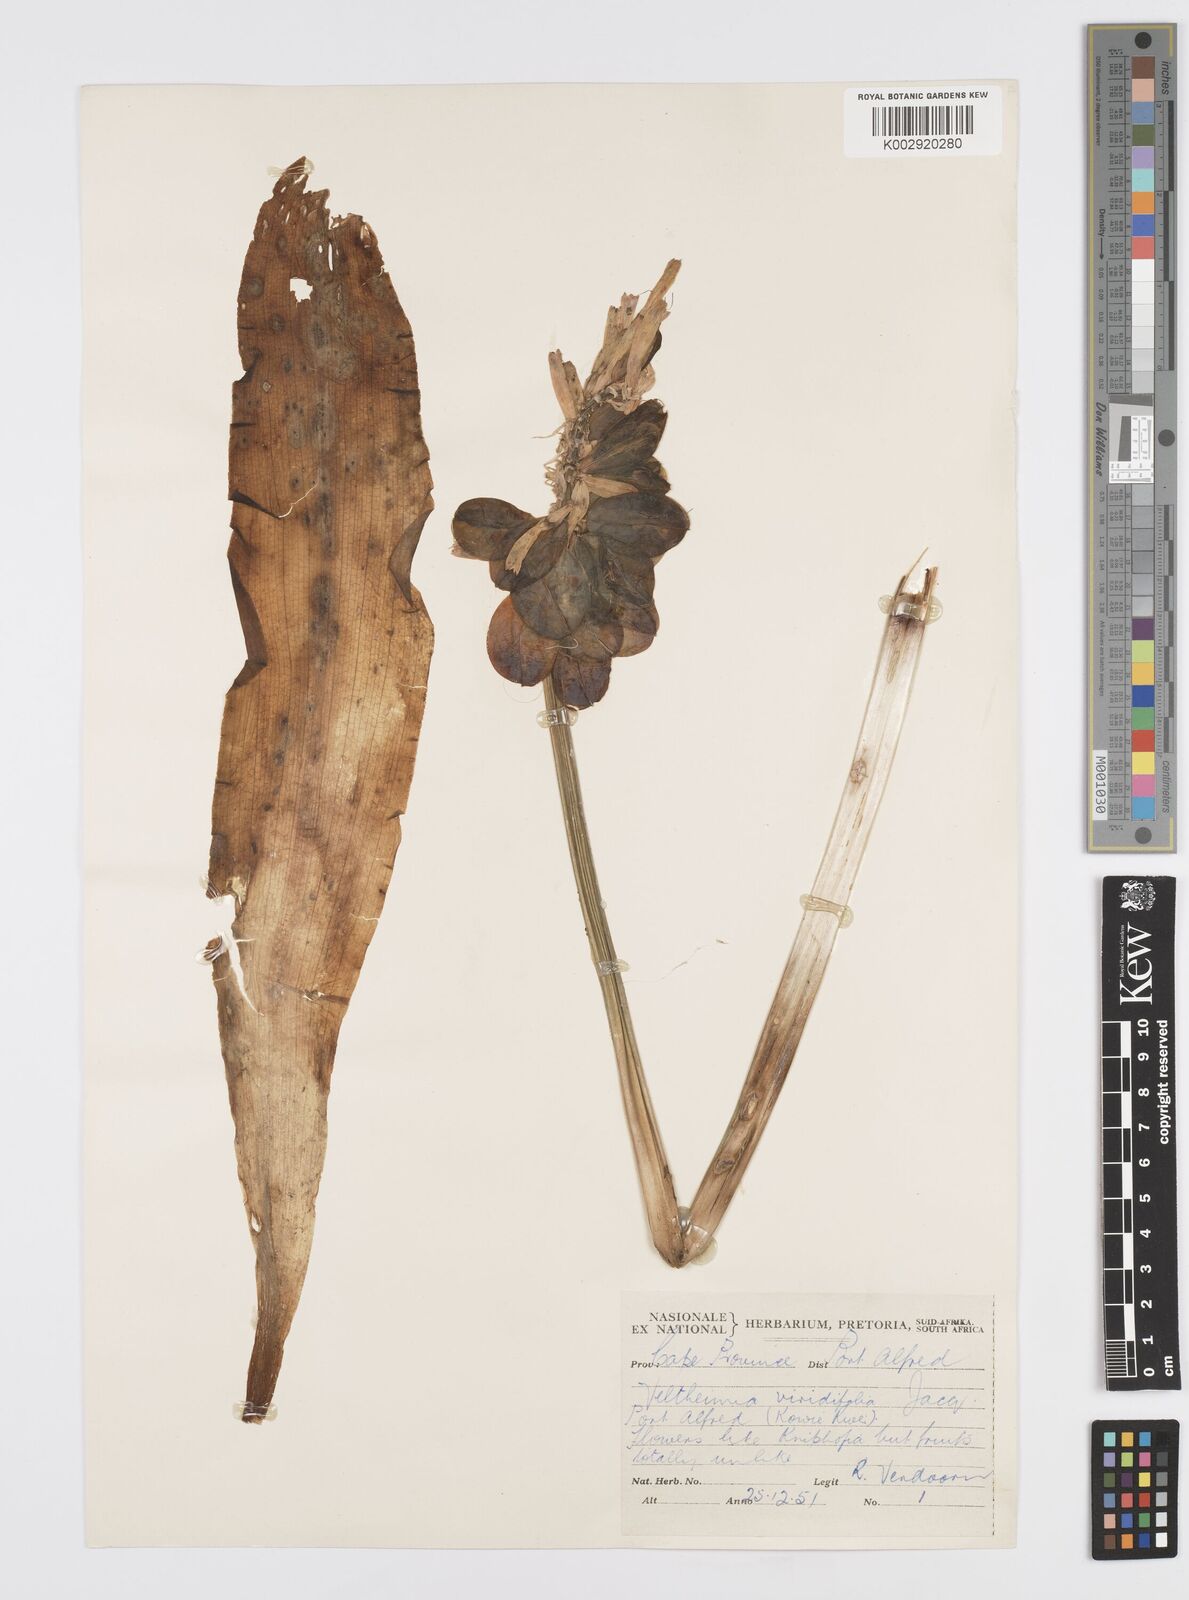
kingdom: Plantae
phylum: Tracheophyta
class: Liliopsida
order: Asparagales
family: Asparagaceae
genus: Veltheimia
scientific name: Veltheimia bracteata
